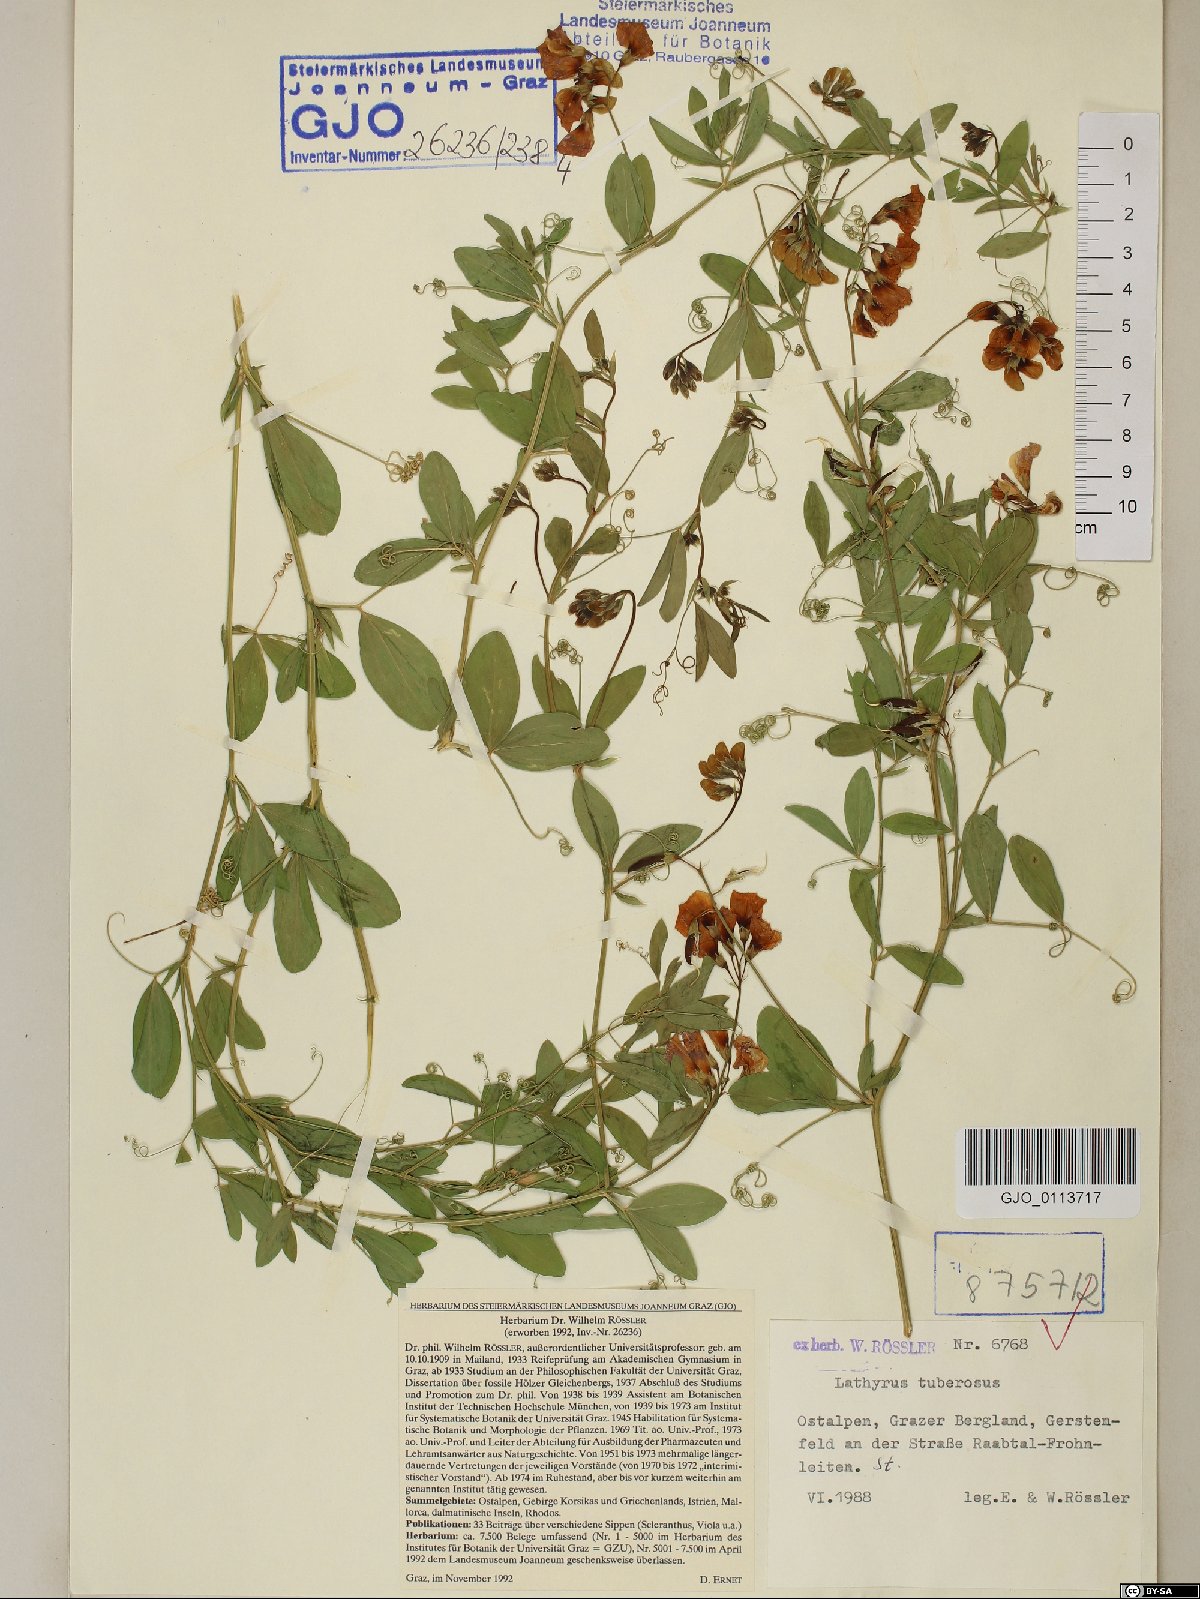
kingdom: Plantae
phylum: Tracheophyta
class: Magnoliopsida
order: Fabales
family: Fabaceae
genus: Lathyrus
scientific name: Lathyrus tuberosus
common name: Tuberous pea
